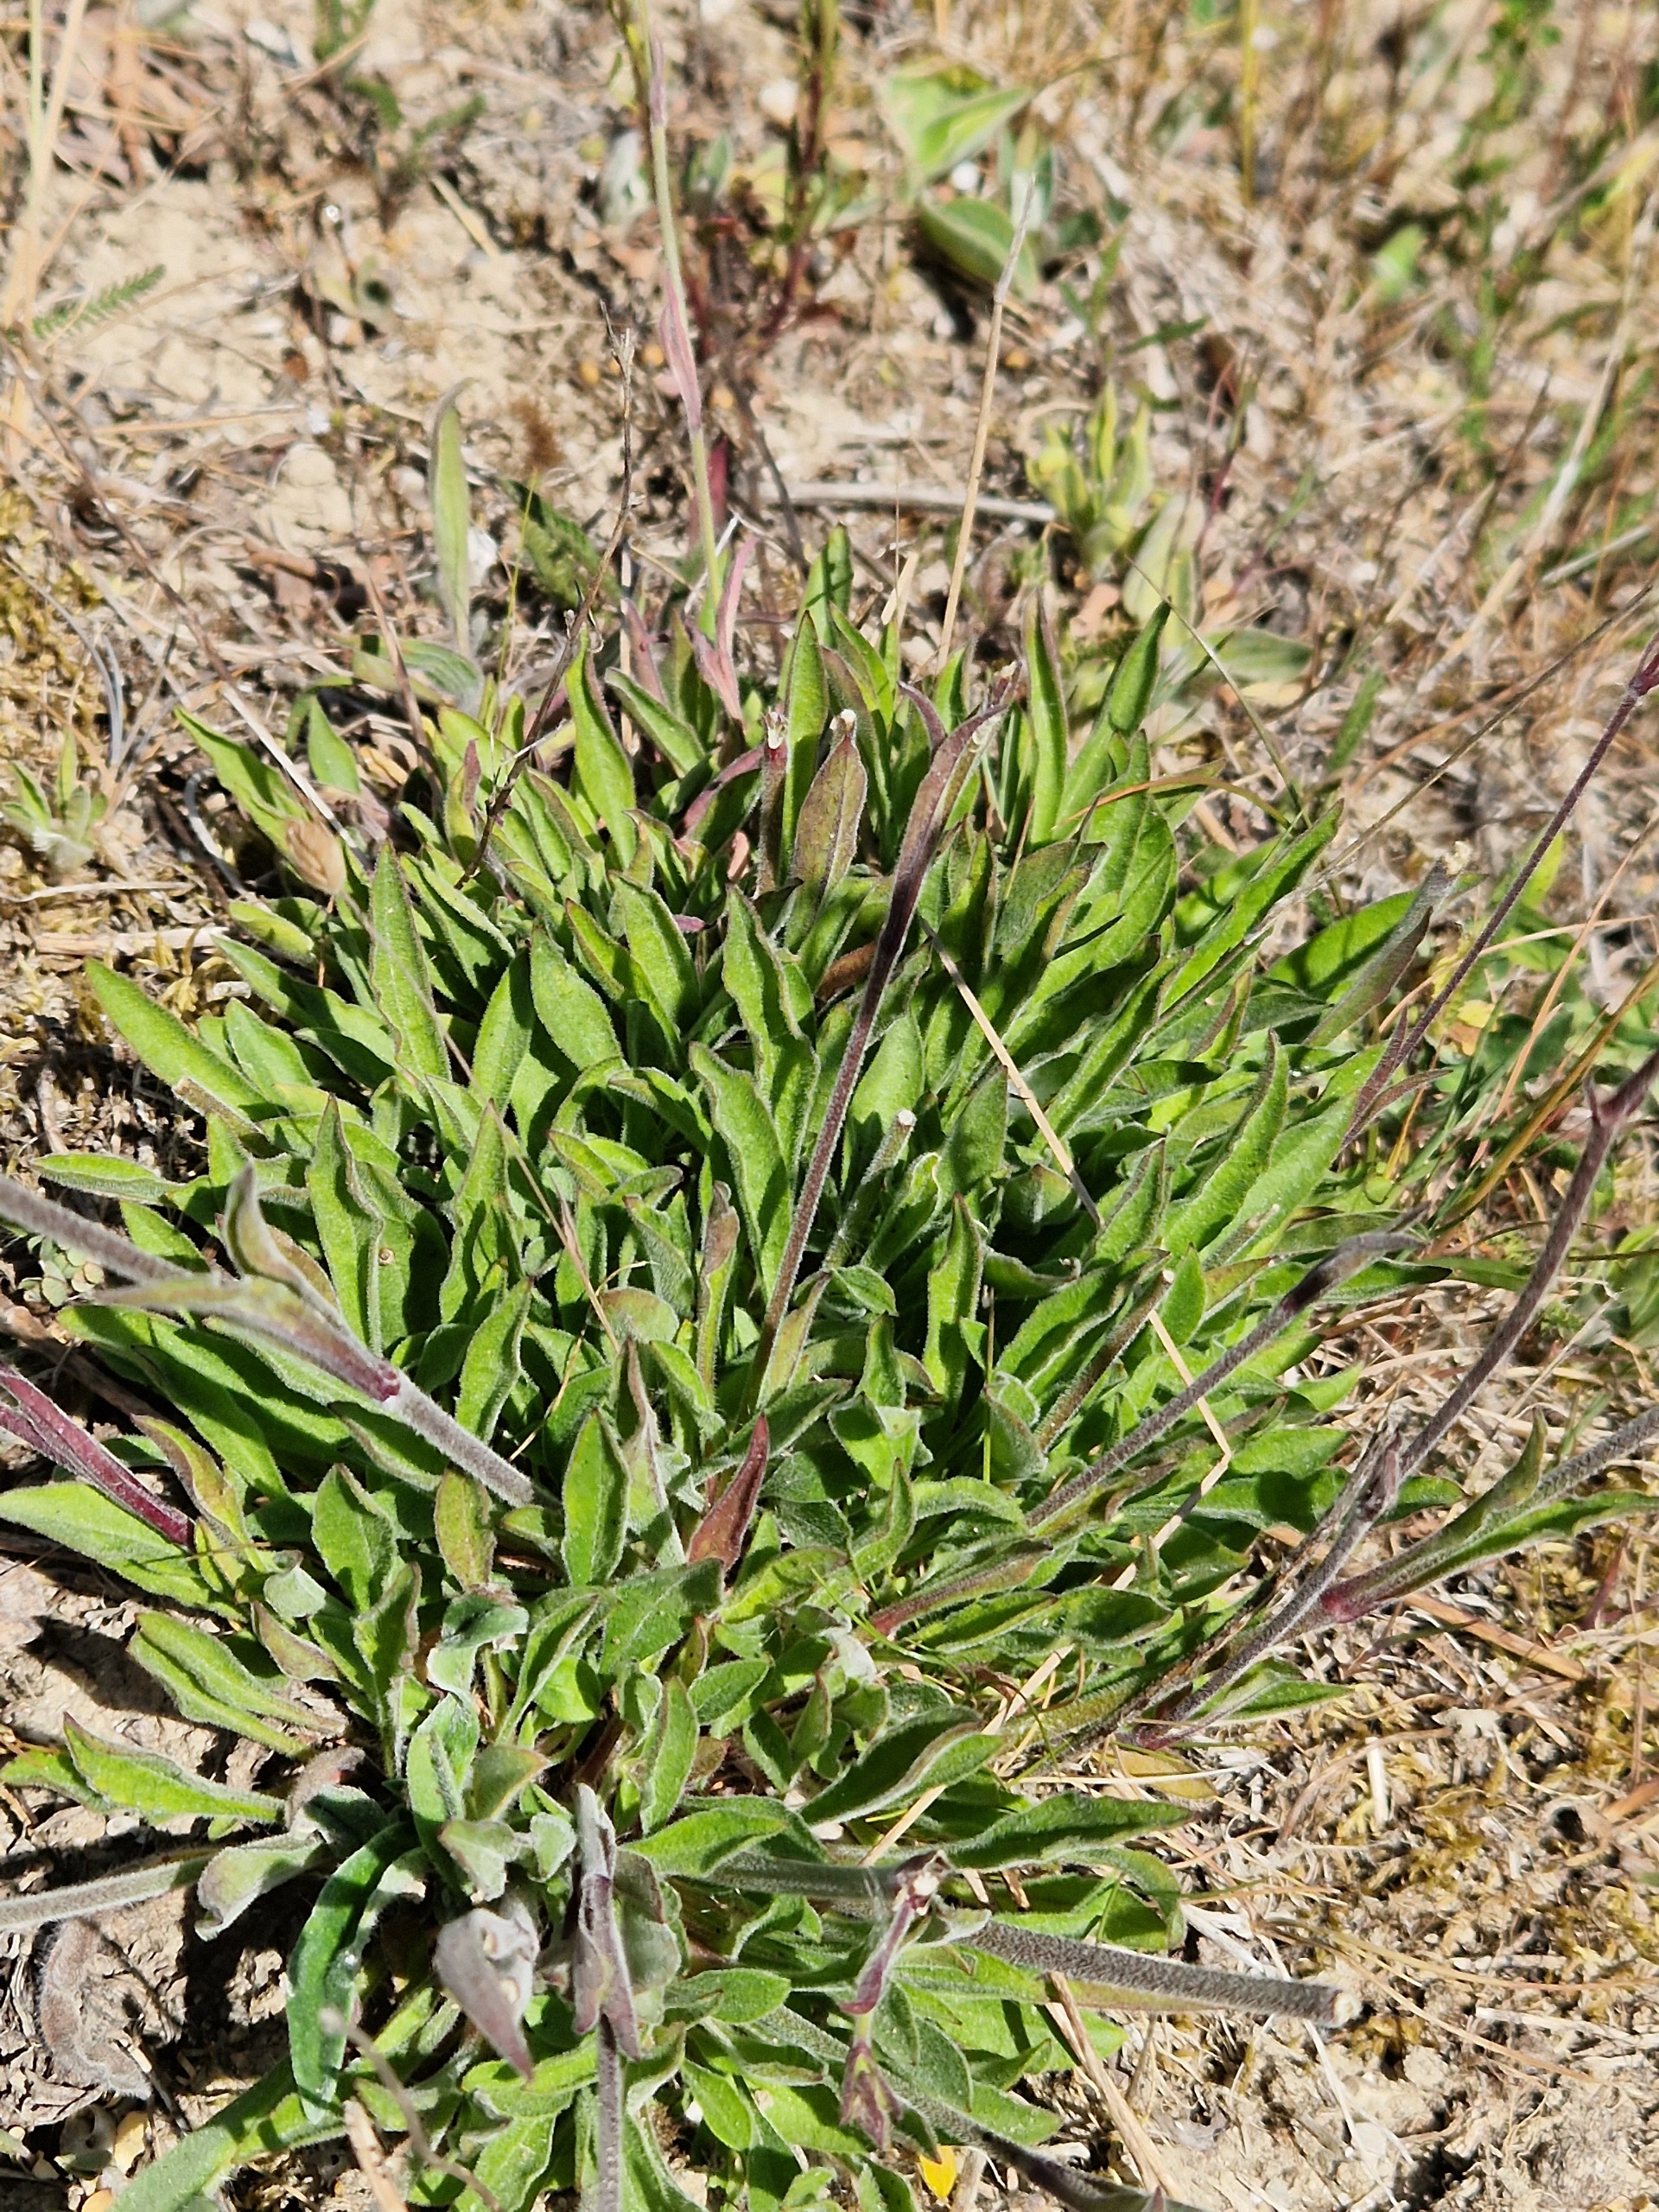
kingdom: Plantae
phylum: Tracheophyta
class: Magnoliopsida
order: Caryophyllales
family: Caryophyllaceae
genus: Silene
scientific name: Silene nutans
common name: Nikkende limurt
